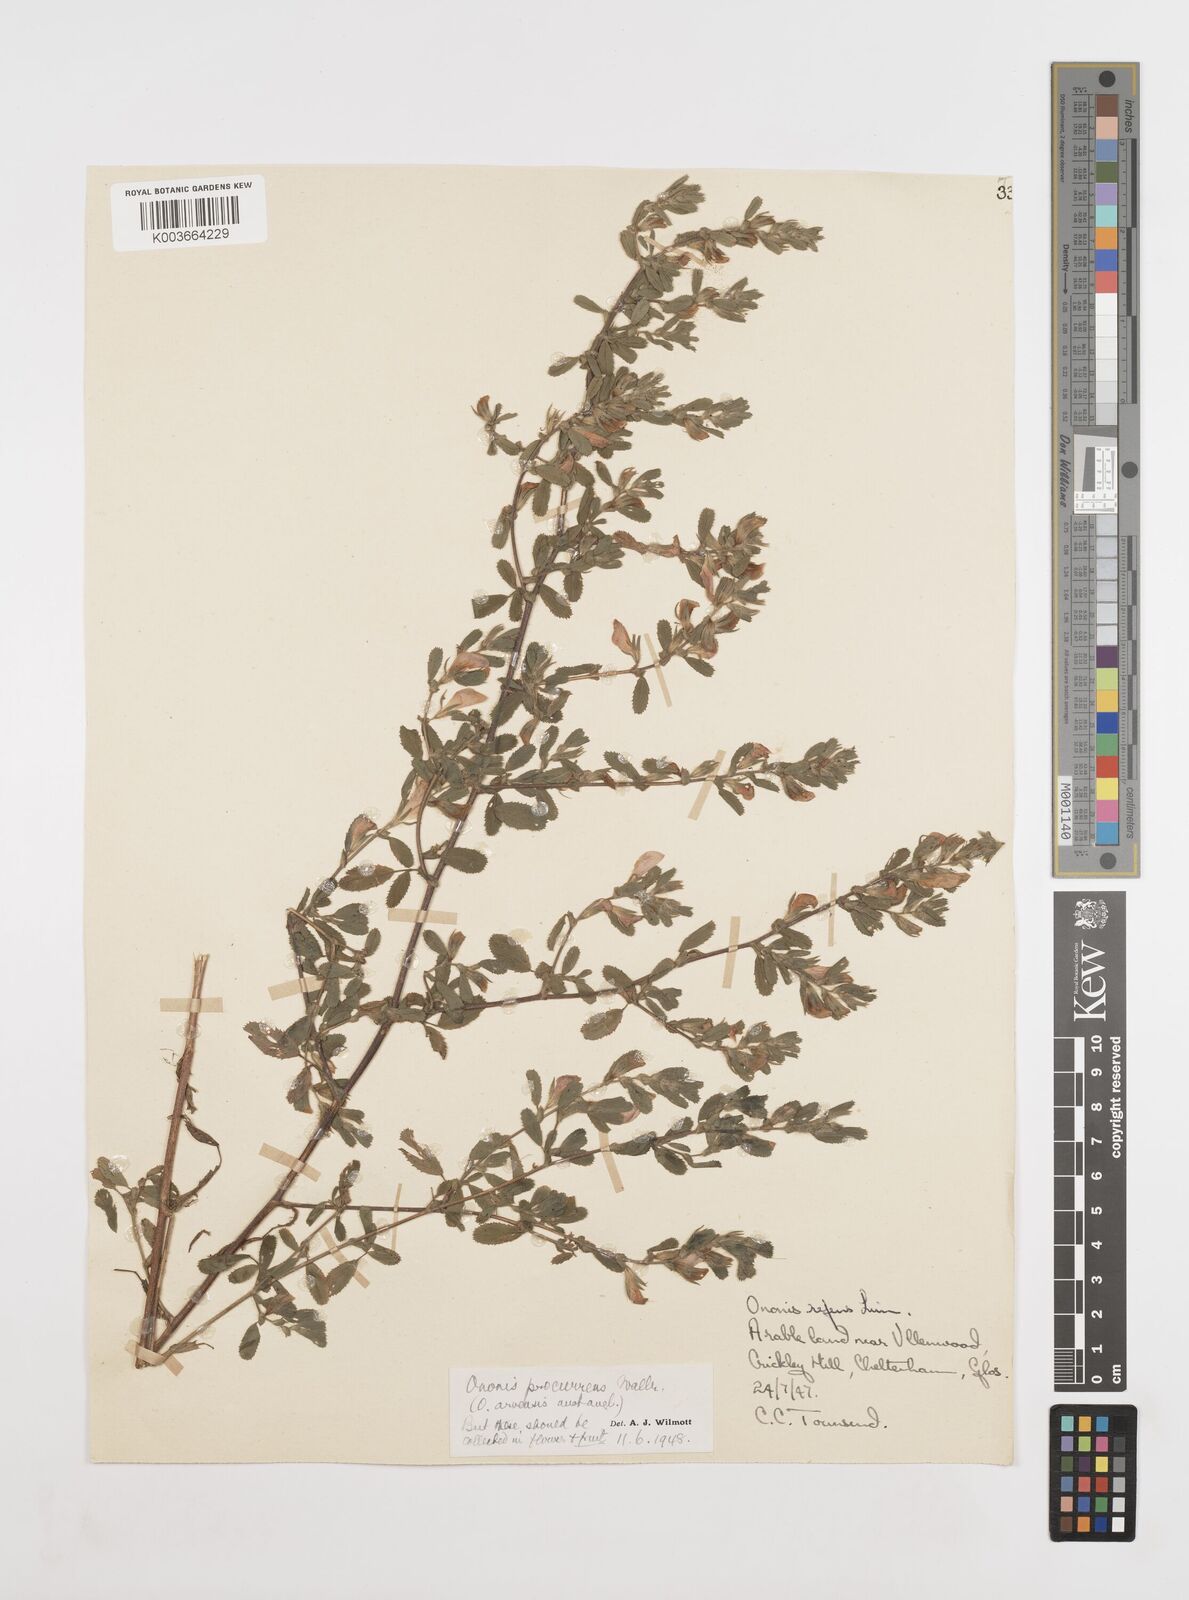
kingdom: Plantae
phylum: Tracheophyta
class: Magnoliopsida
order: Fabales
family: Fabaceae
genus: Ononis
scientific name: Ononis spinosa
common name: Spiny restharrow
